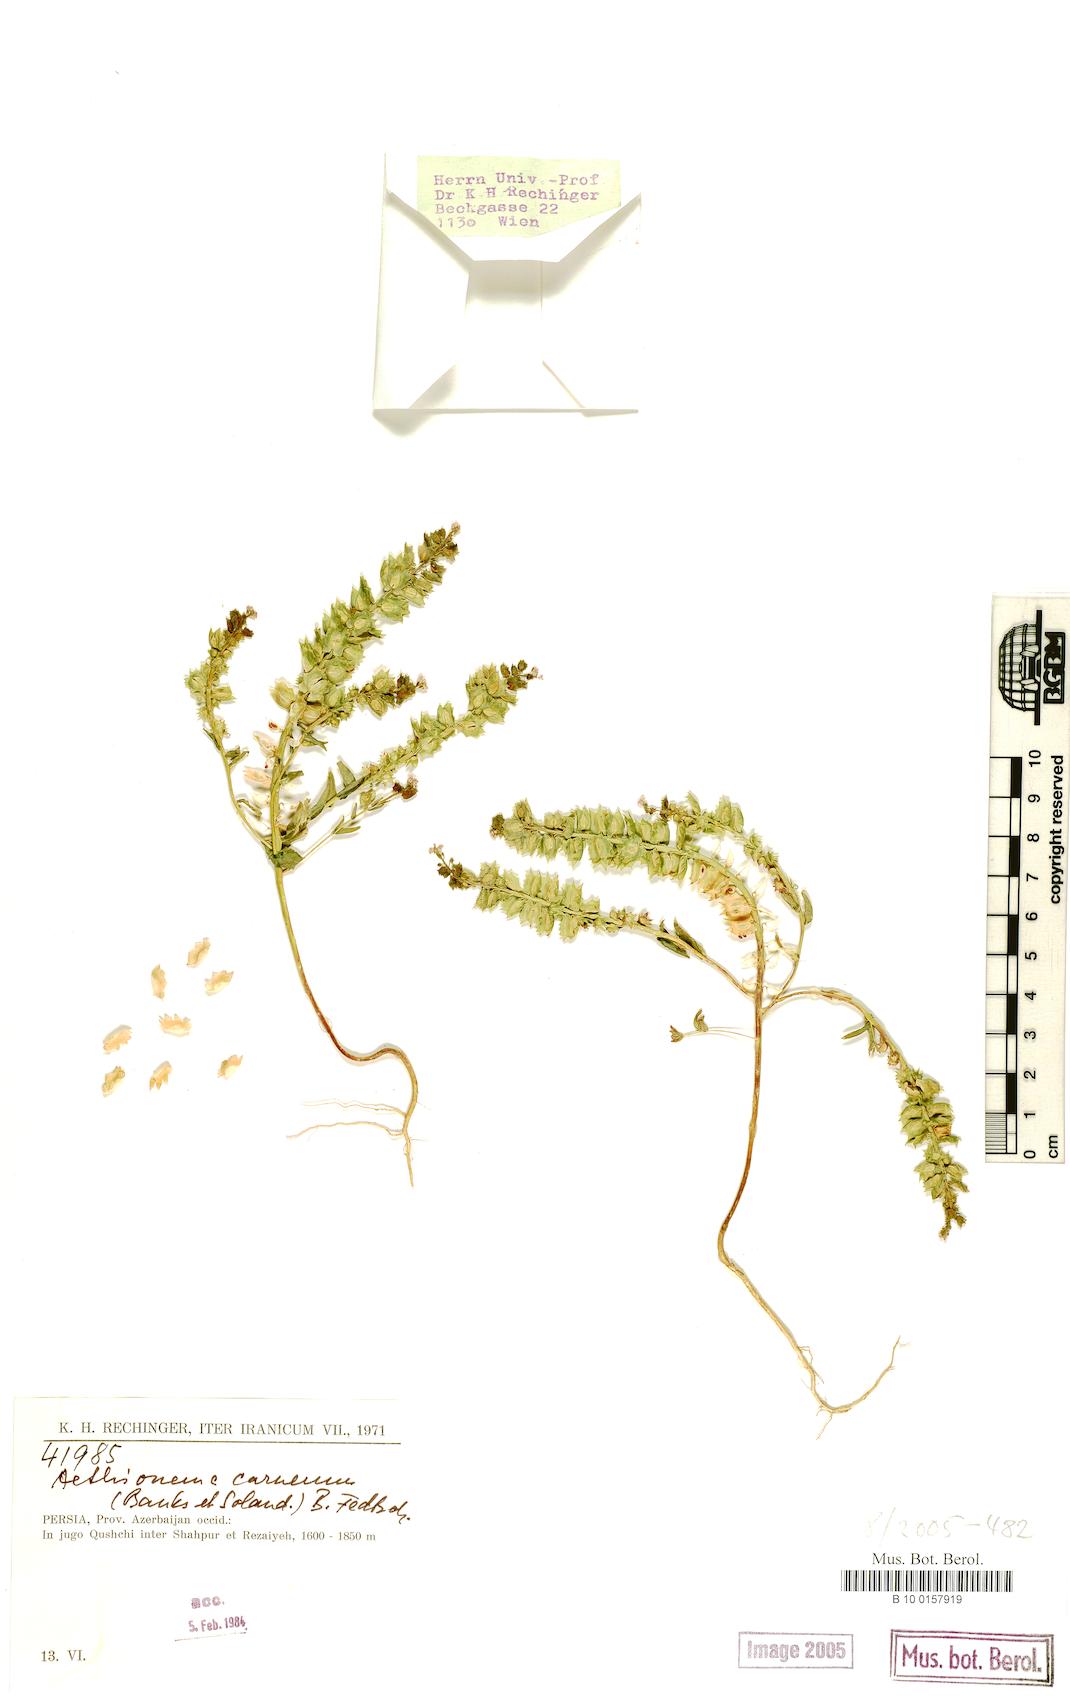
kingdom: Plantae
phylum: Tracheophyta
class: Magnoliopsida
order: Brassicales
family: Brassicaceae
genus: Aethionema
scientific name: Aethionema carneum
